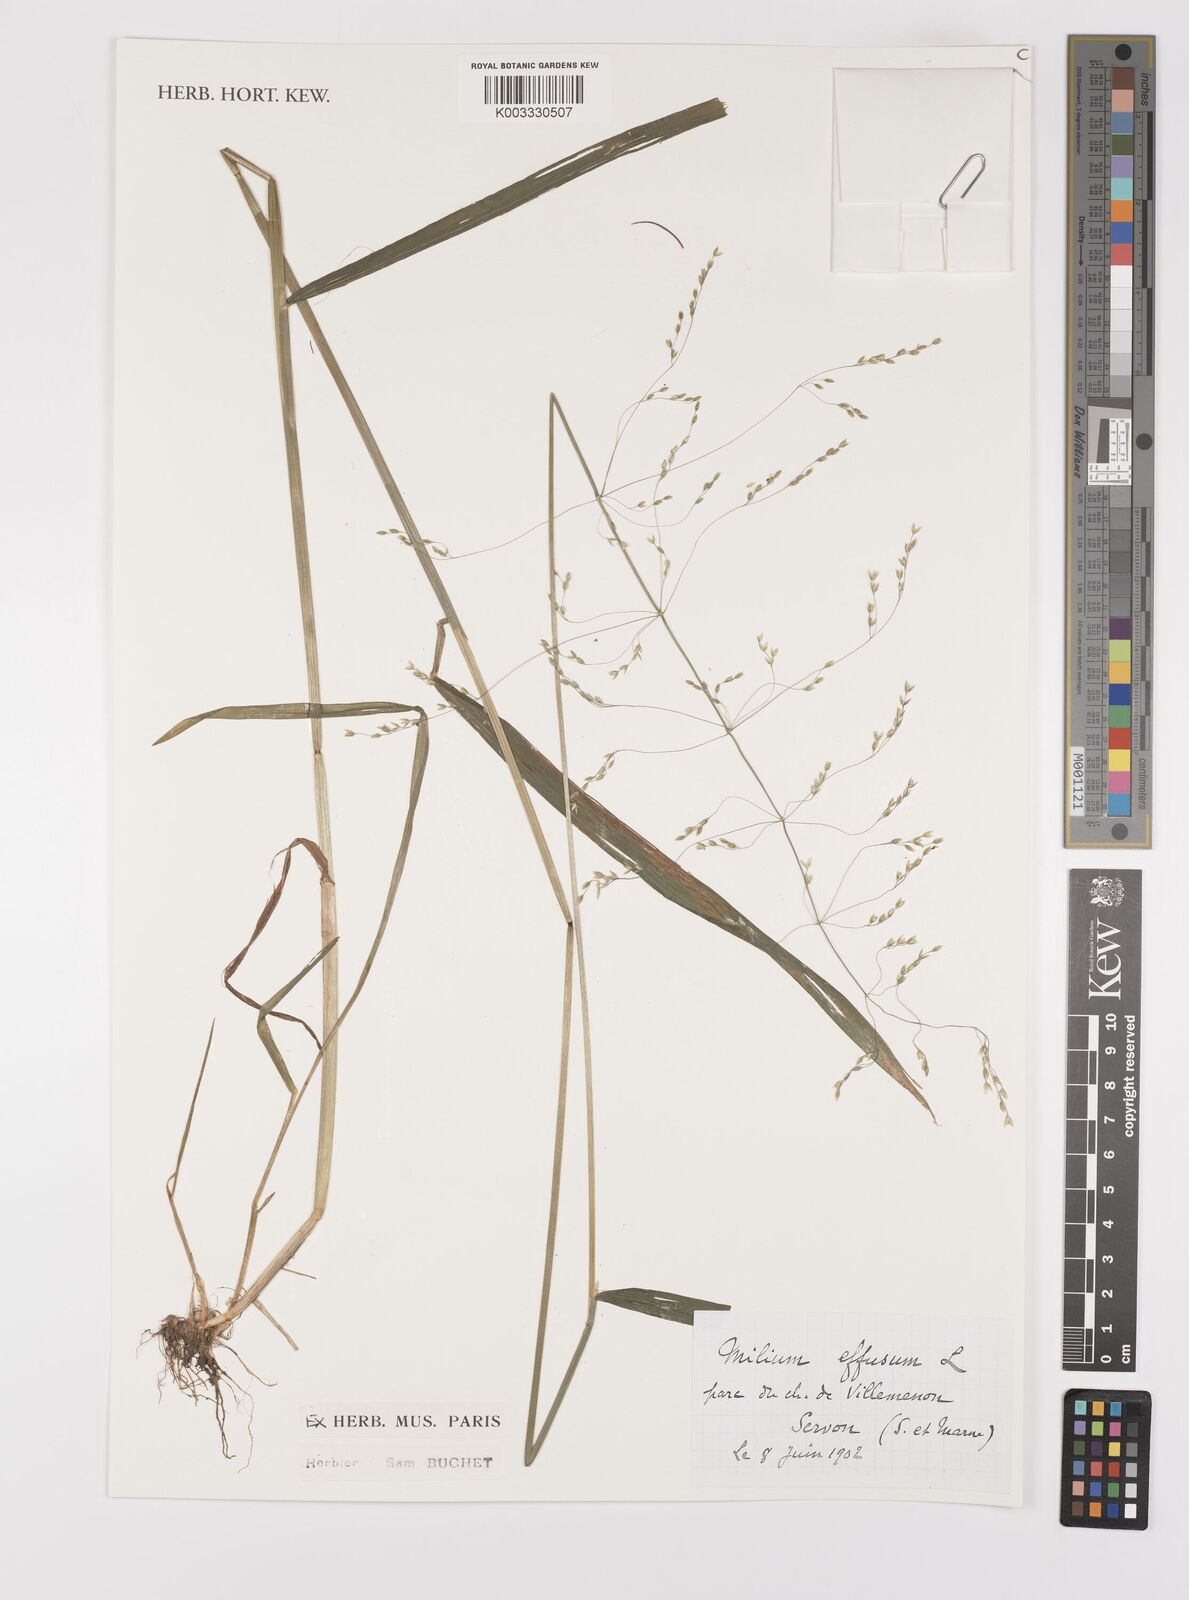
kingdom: Plantae
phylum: Tracheophyta
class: Liliopsida
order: Poales
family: Poaceae
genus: Milium
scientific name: Milium
